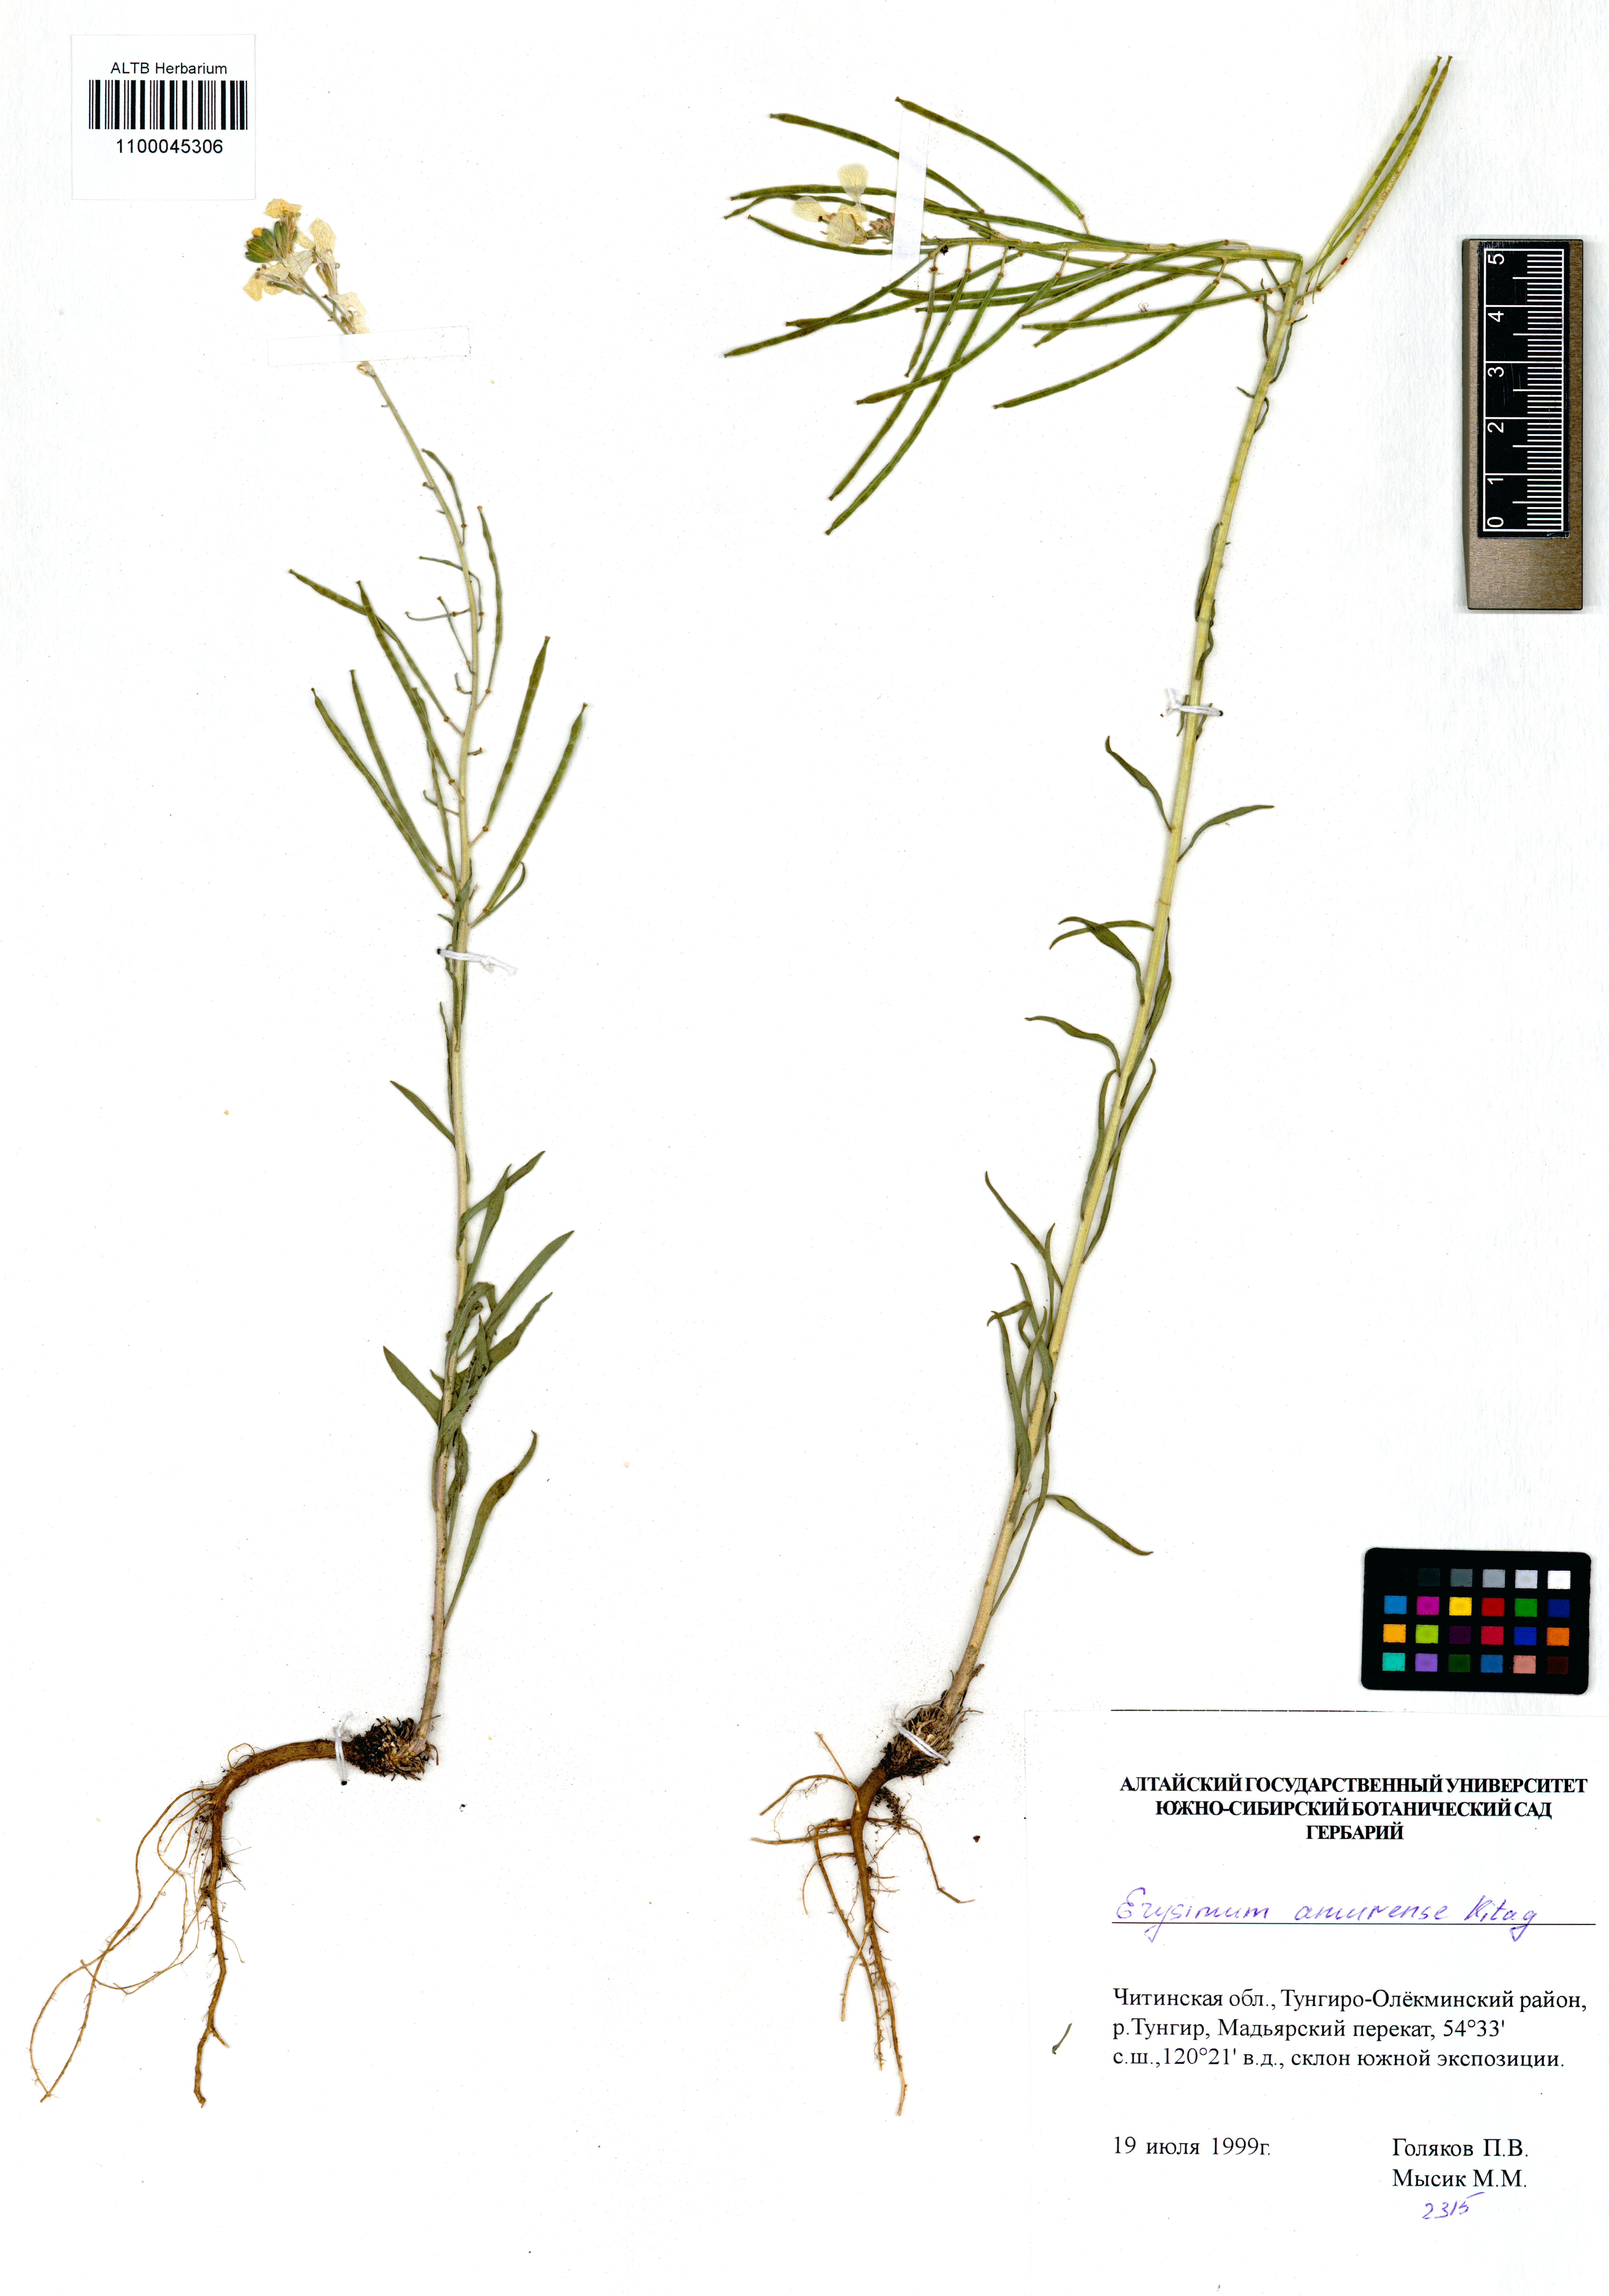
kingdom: Plantae
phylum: Tracheophyta
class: Magnoliopsida
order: Brassicales
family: Brassicaceae
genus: Erysimum
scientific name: Erysimum amurense
